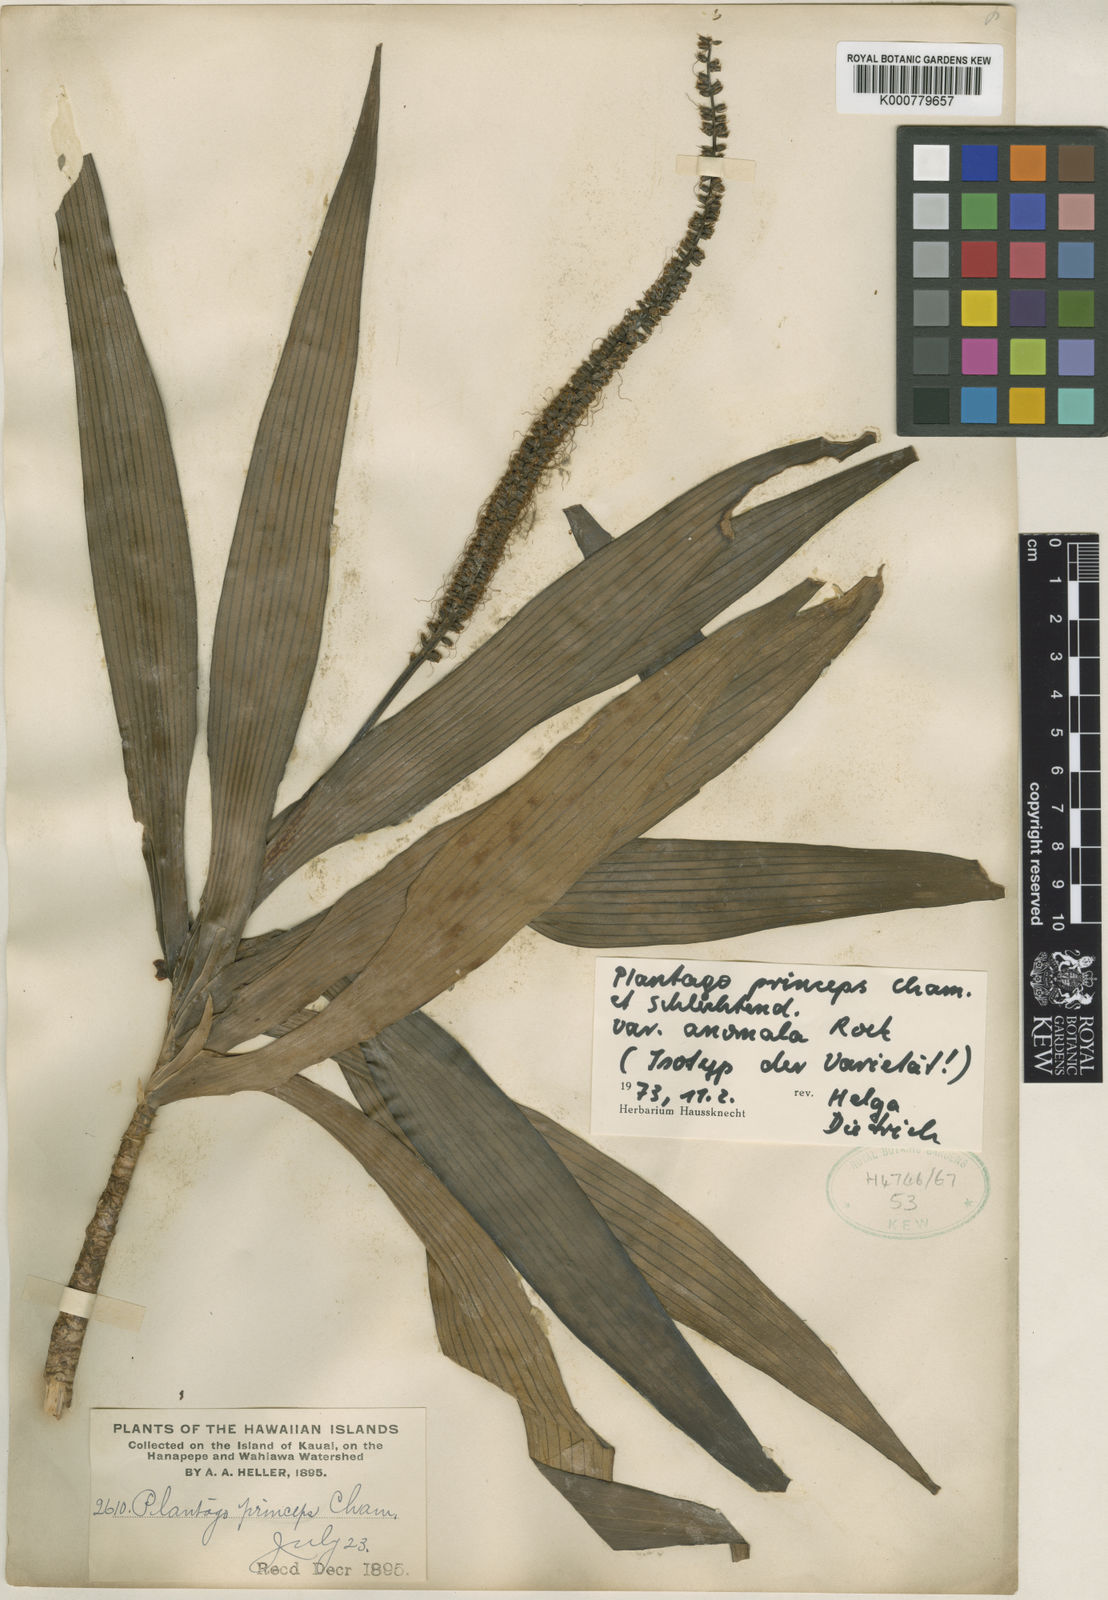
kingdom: Plantae
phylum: Tracheophyta
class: Magnoliopsida
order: Lamiales
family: Plantaginaceae
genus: Plantago
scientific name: Plantago princeps
